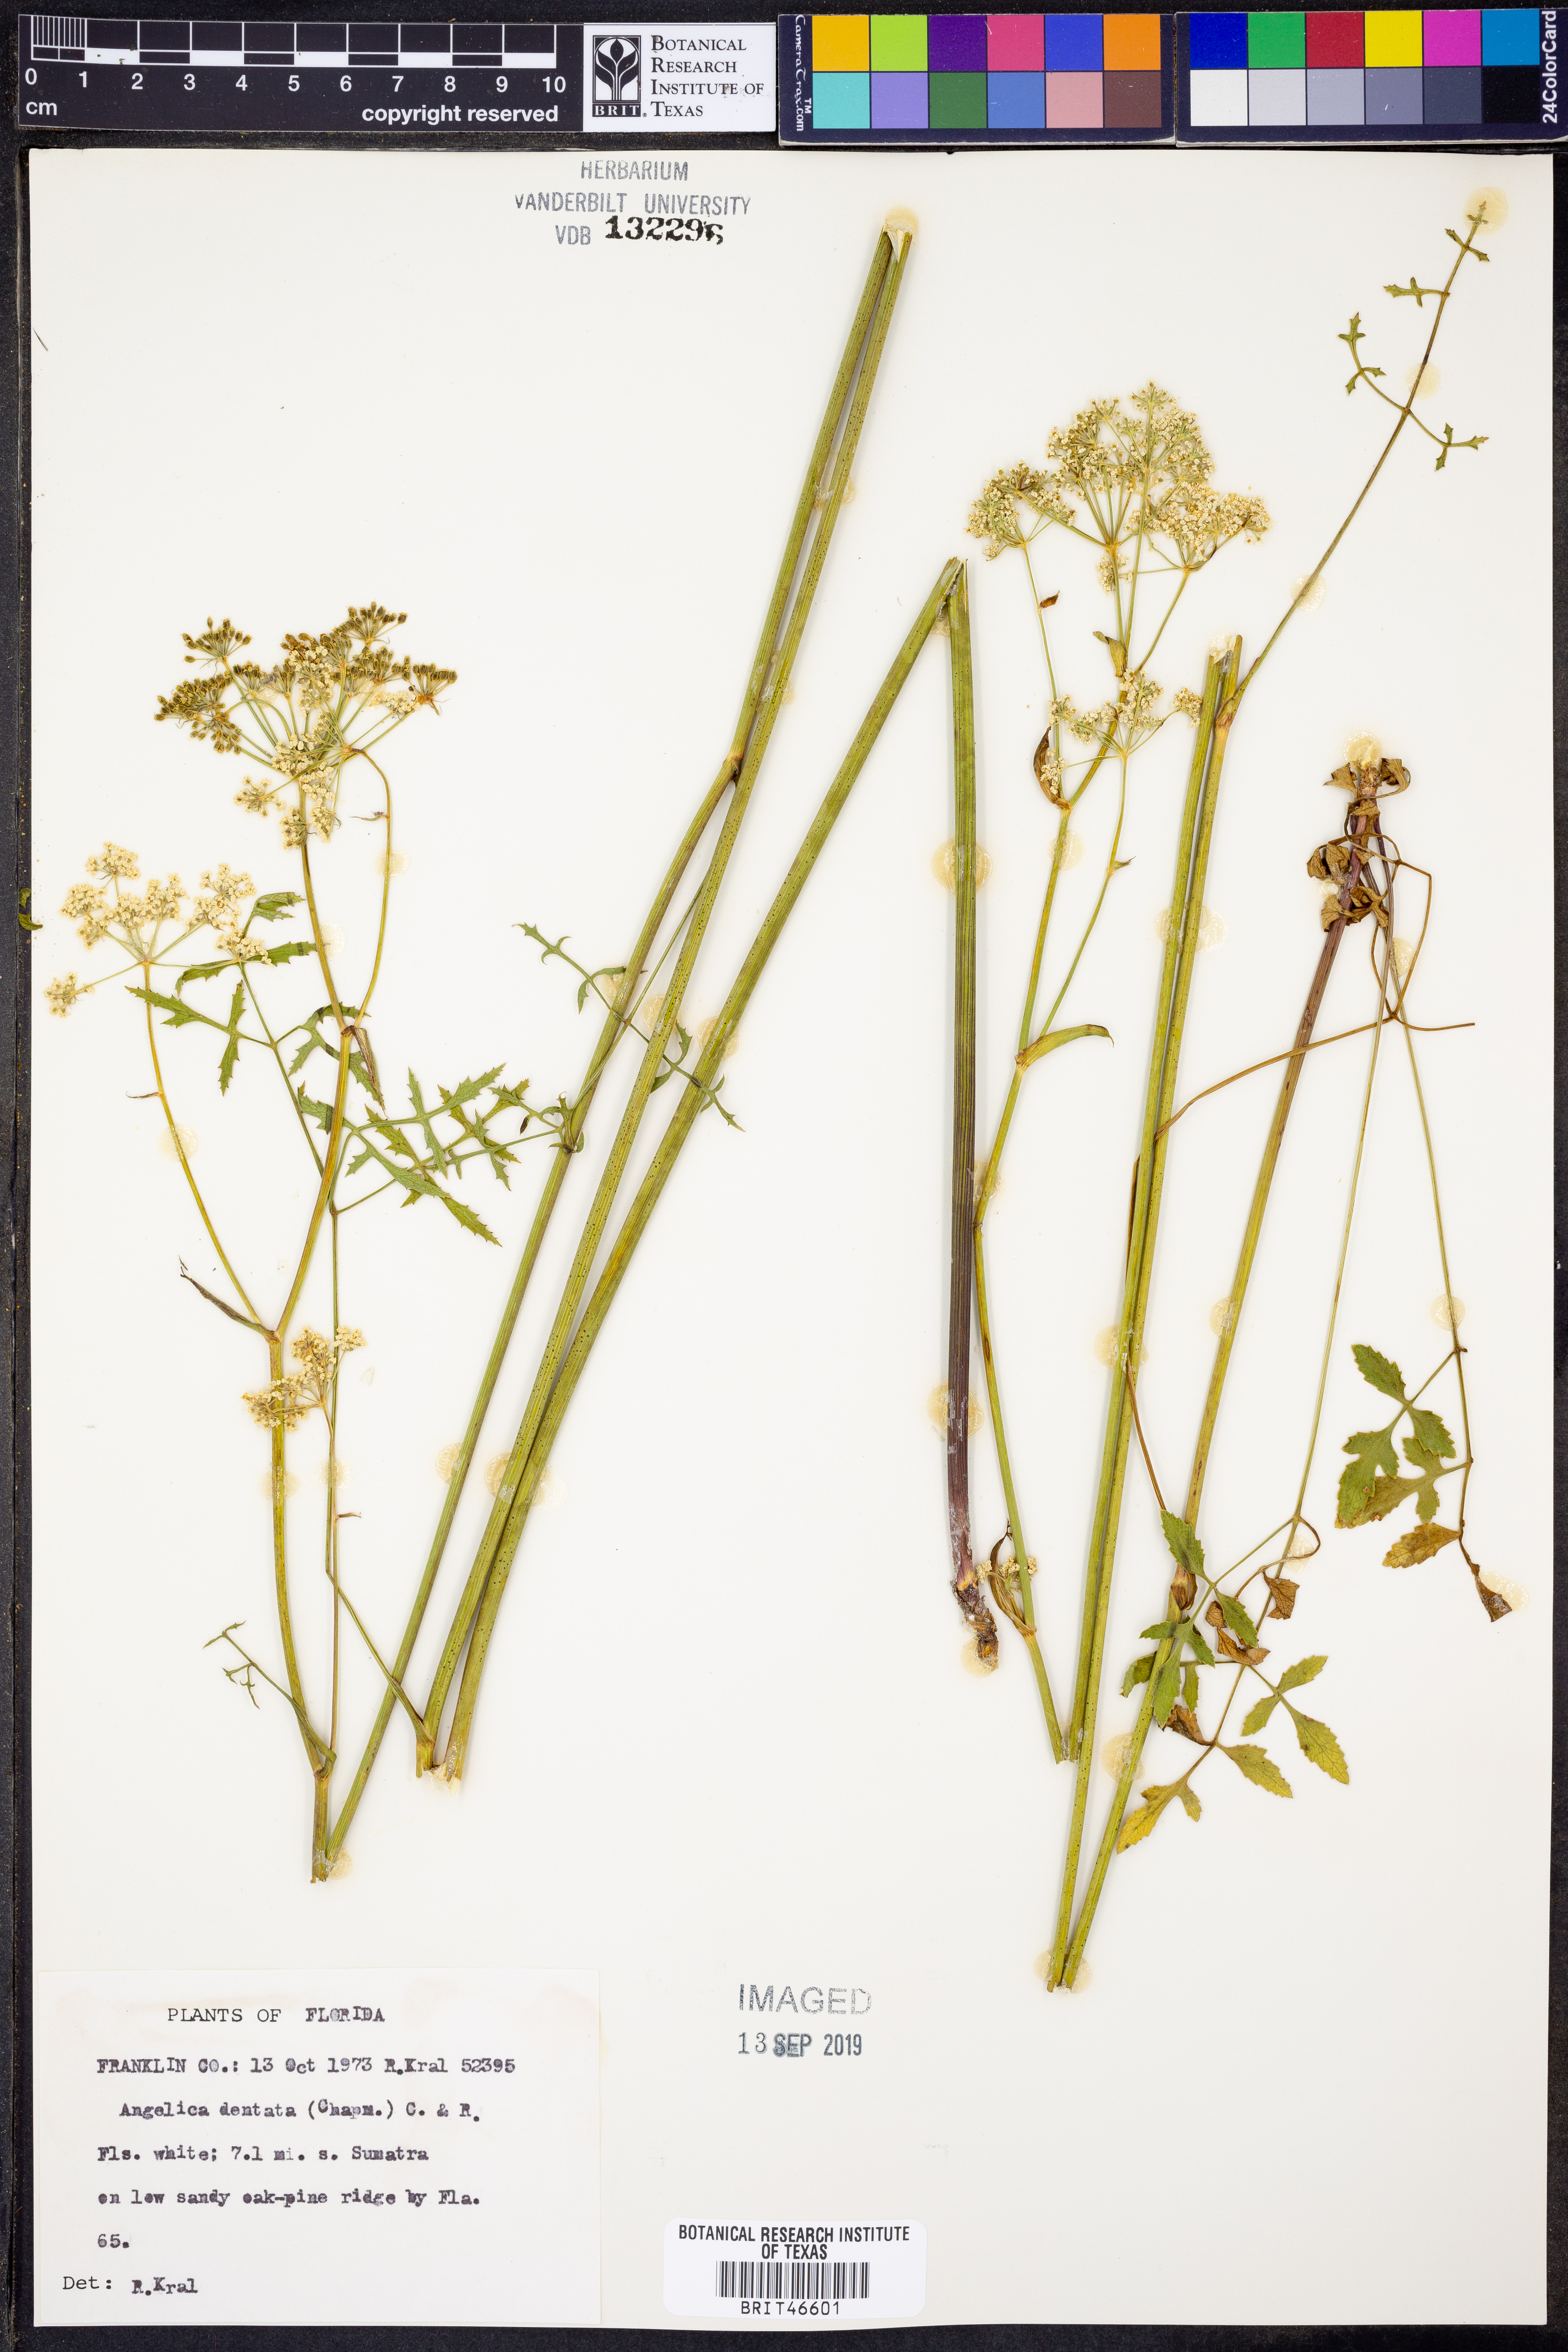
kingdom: Plantae
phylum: Tracheophyta
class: Magnoliopsida
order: Apiales
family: Apiaceae
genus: Angelica
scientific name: Angelica venenosa
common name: Hairy angelica
